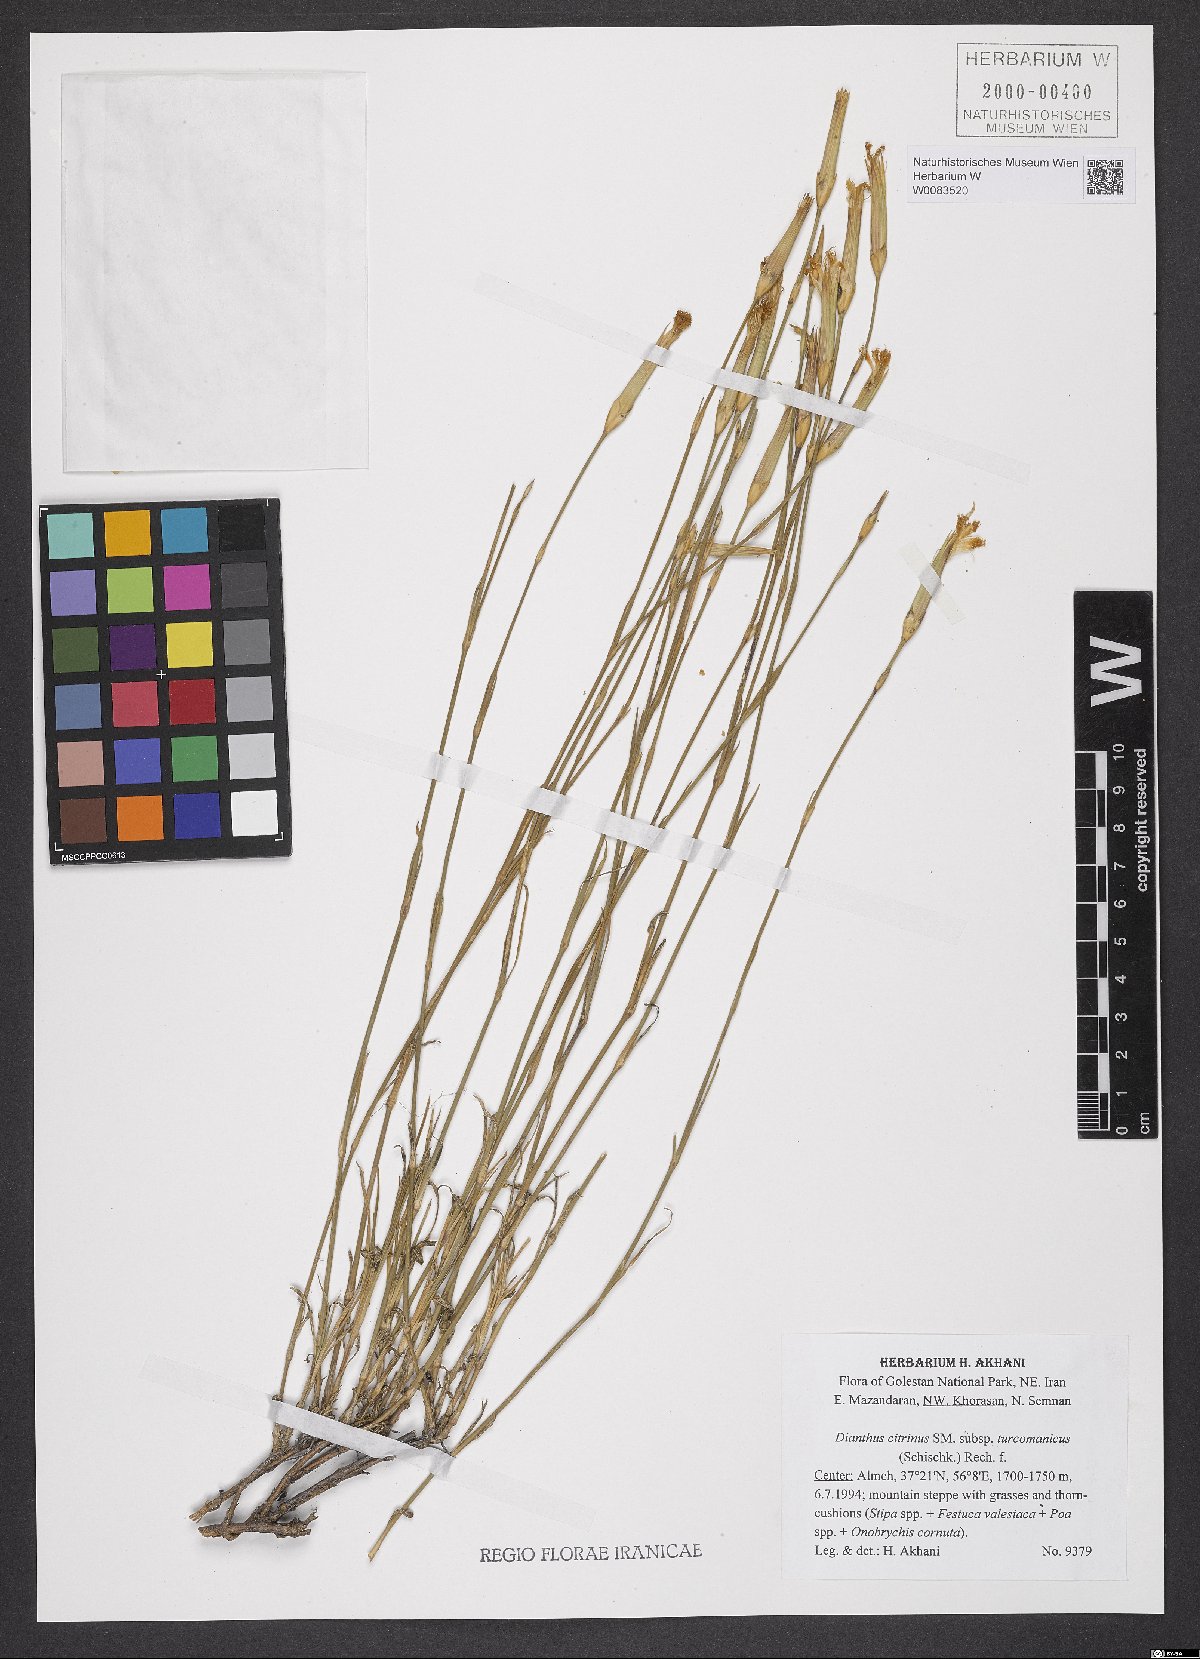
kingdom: Plantae
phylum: Tracheophyta
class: Magnoliopsida
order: Caryophyllales
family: Caryophyllaceae
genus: Dianthus
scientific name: Dianthus turkestanicus
